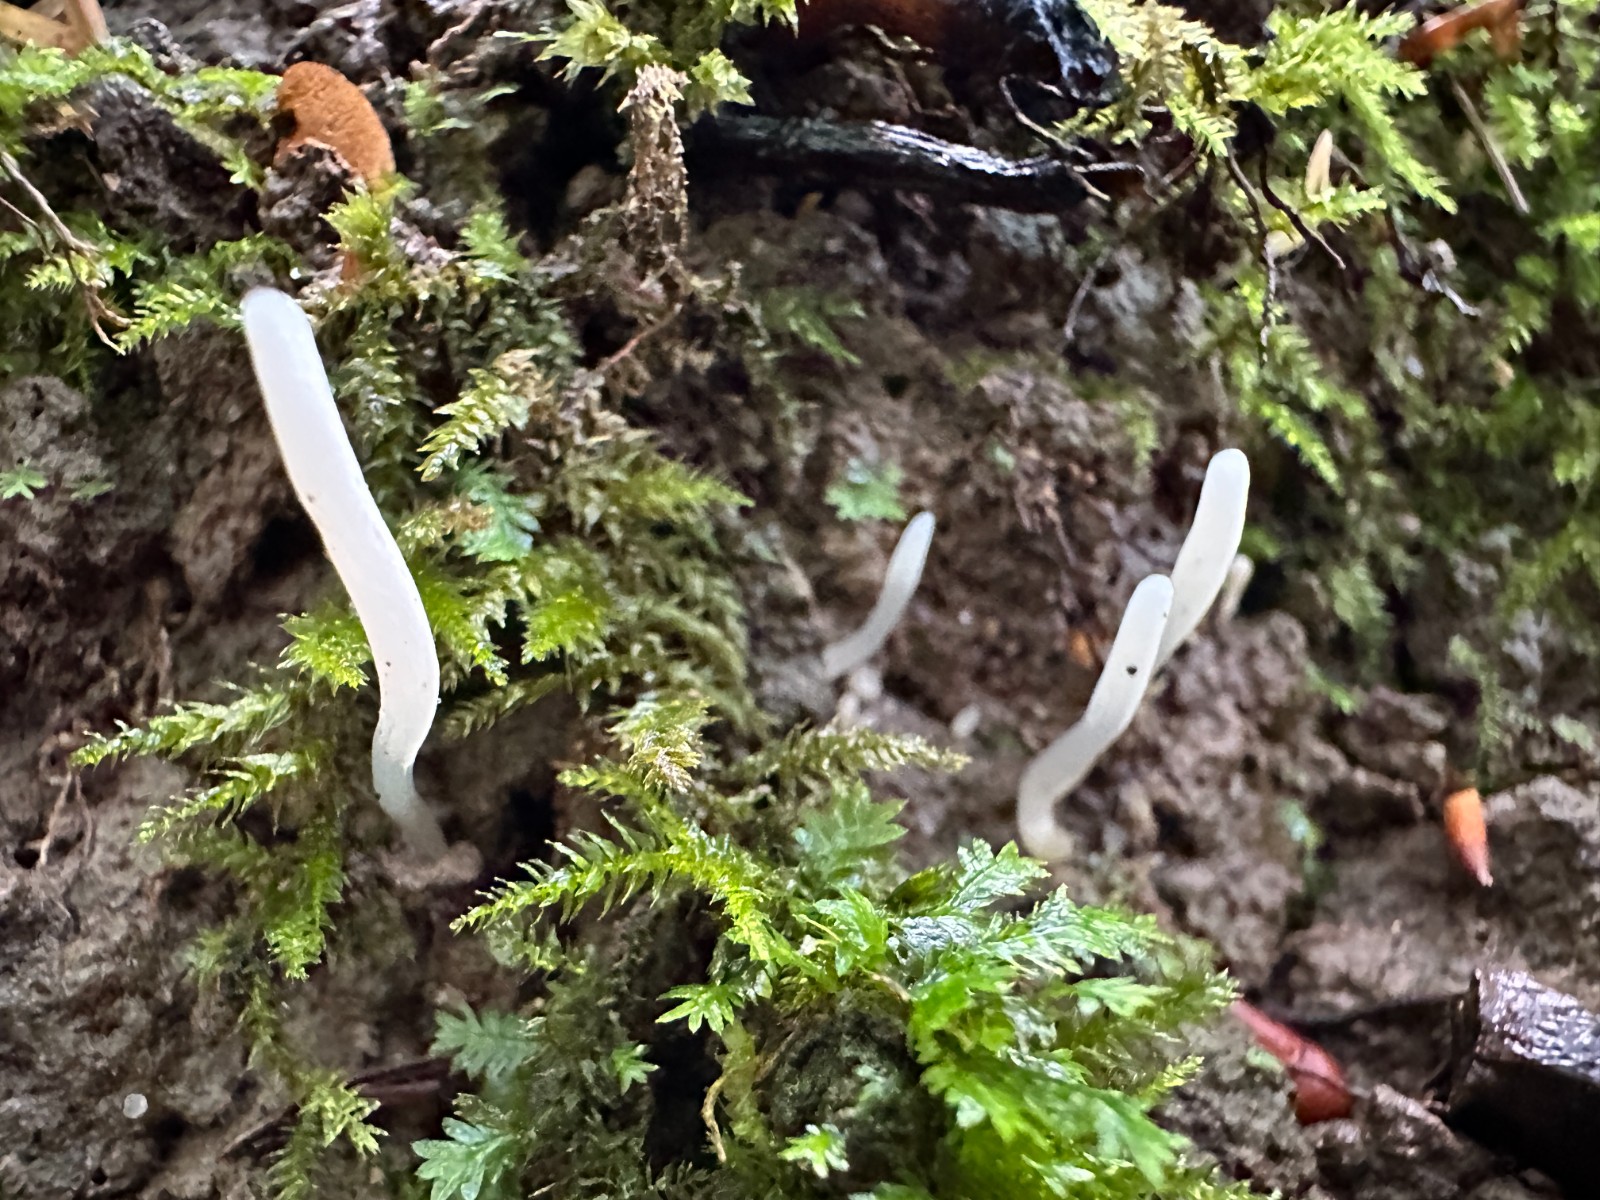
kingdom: Fungi
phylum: Basidiomycota
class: Agaricomycetes
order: Agaricales
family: Clavariaceae
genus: Clavaria
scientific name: Clavaria
